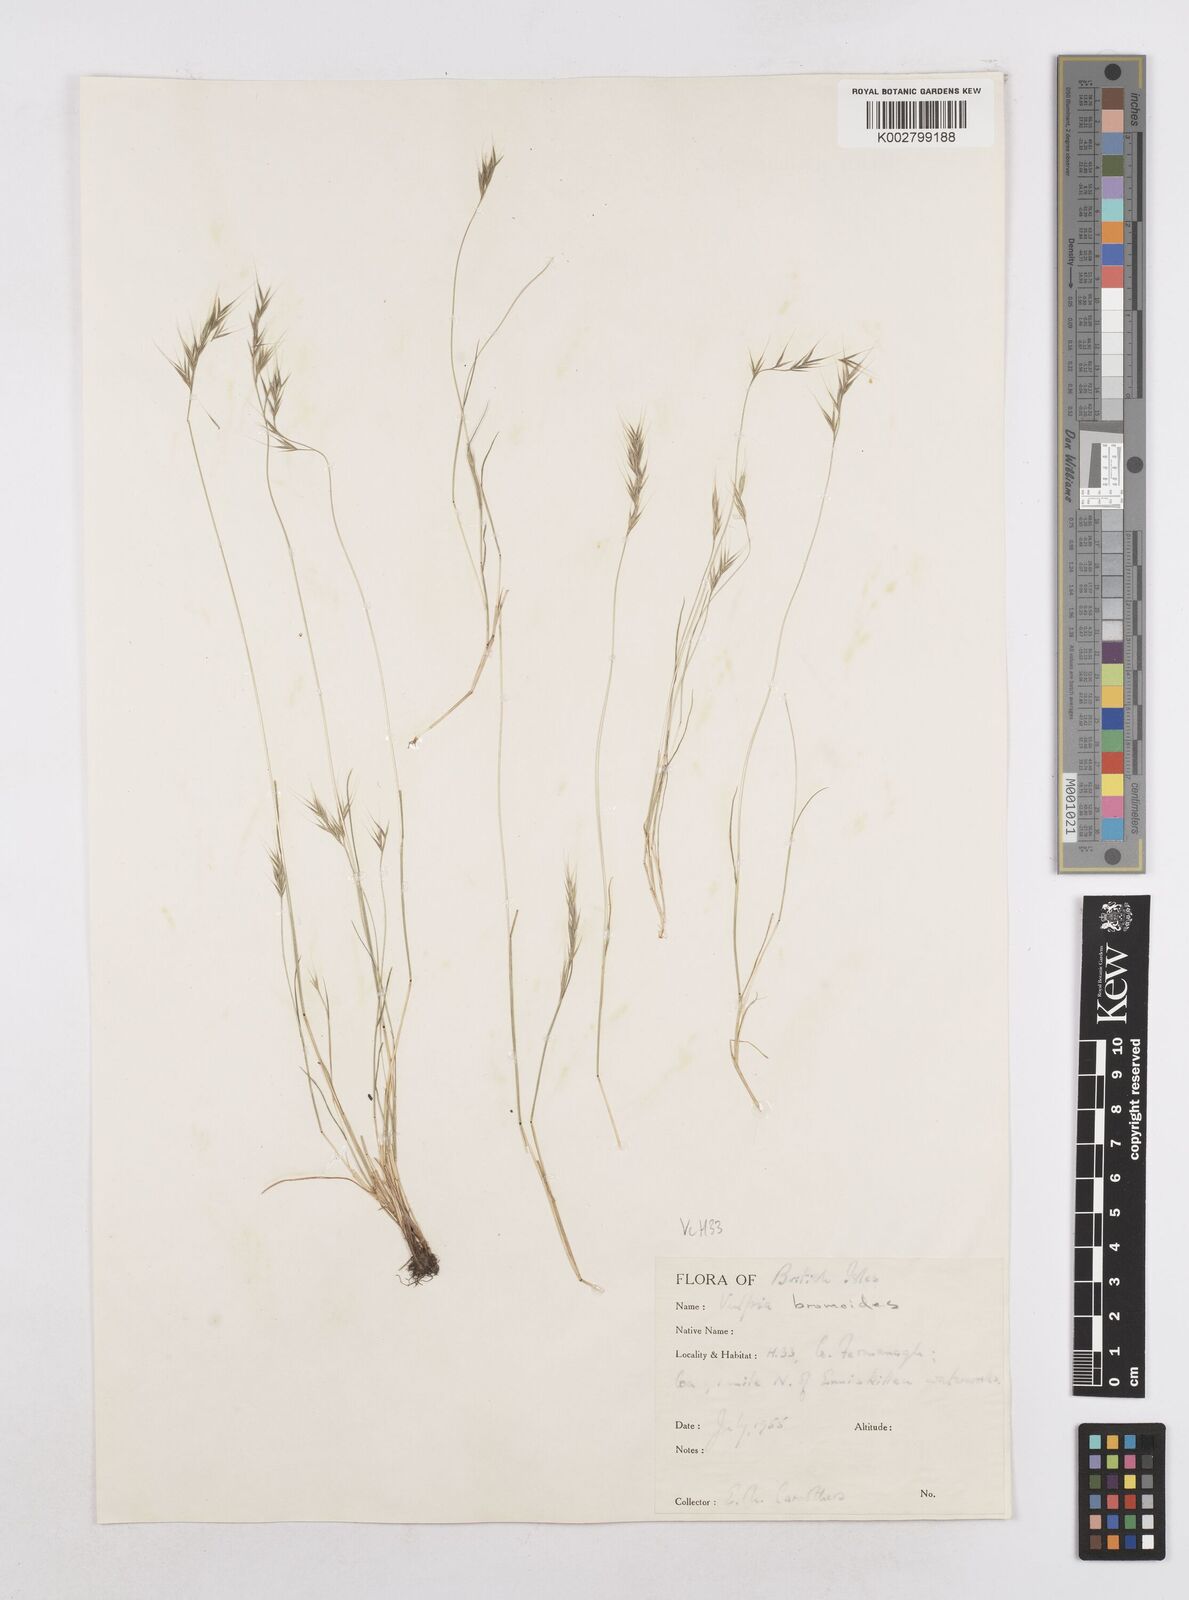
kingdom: Plantae
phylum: Tracheophyta
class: Liliopsida
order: Poales
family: Poaceae
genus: Festuca
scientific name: Festuca bromoides
